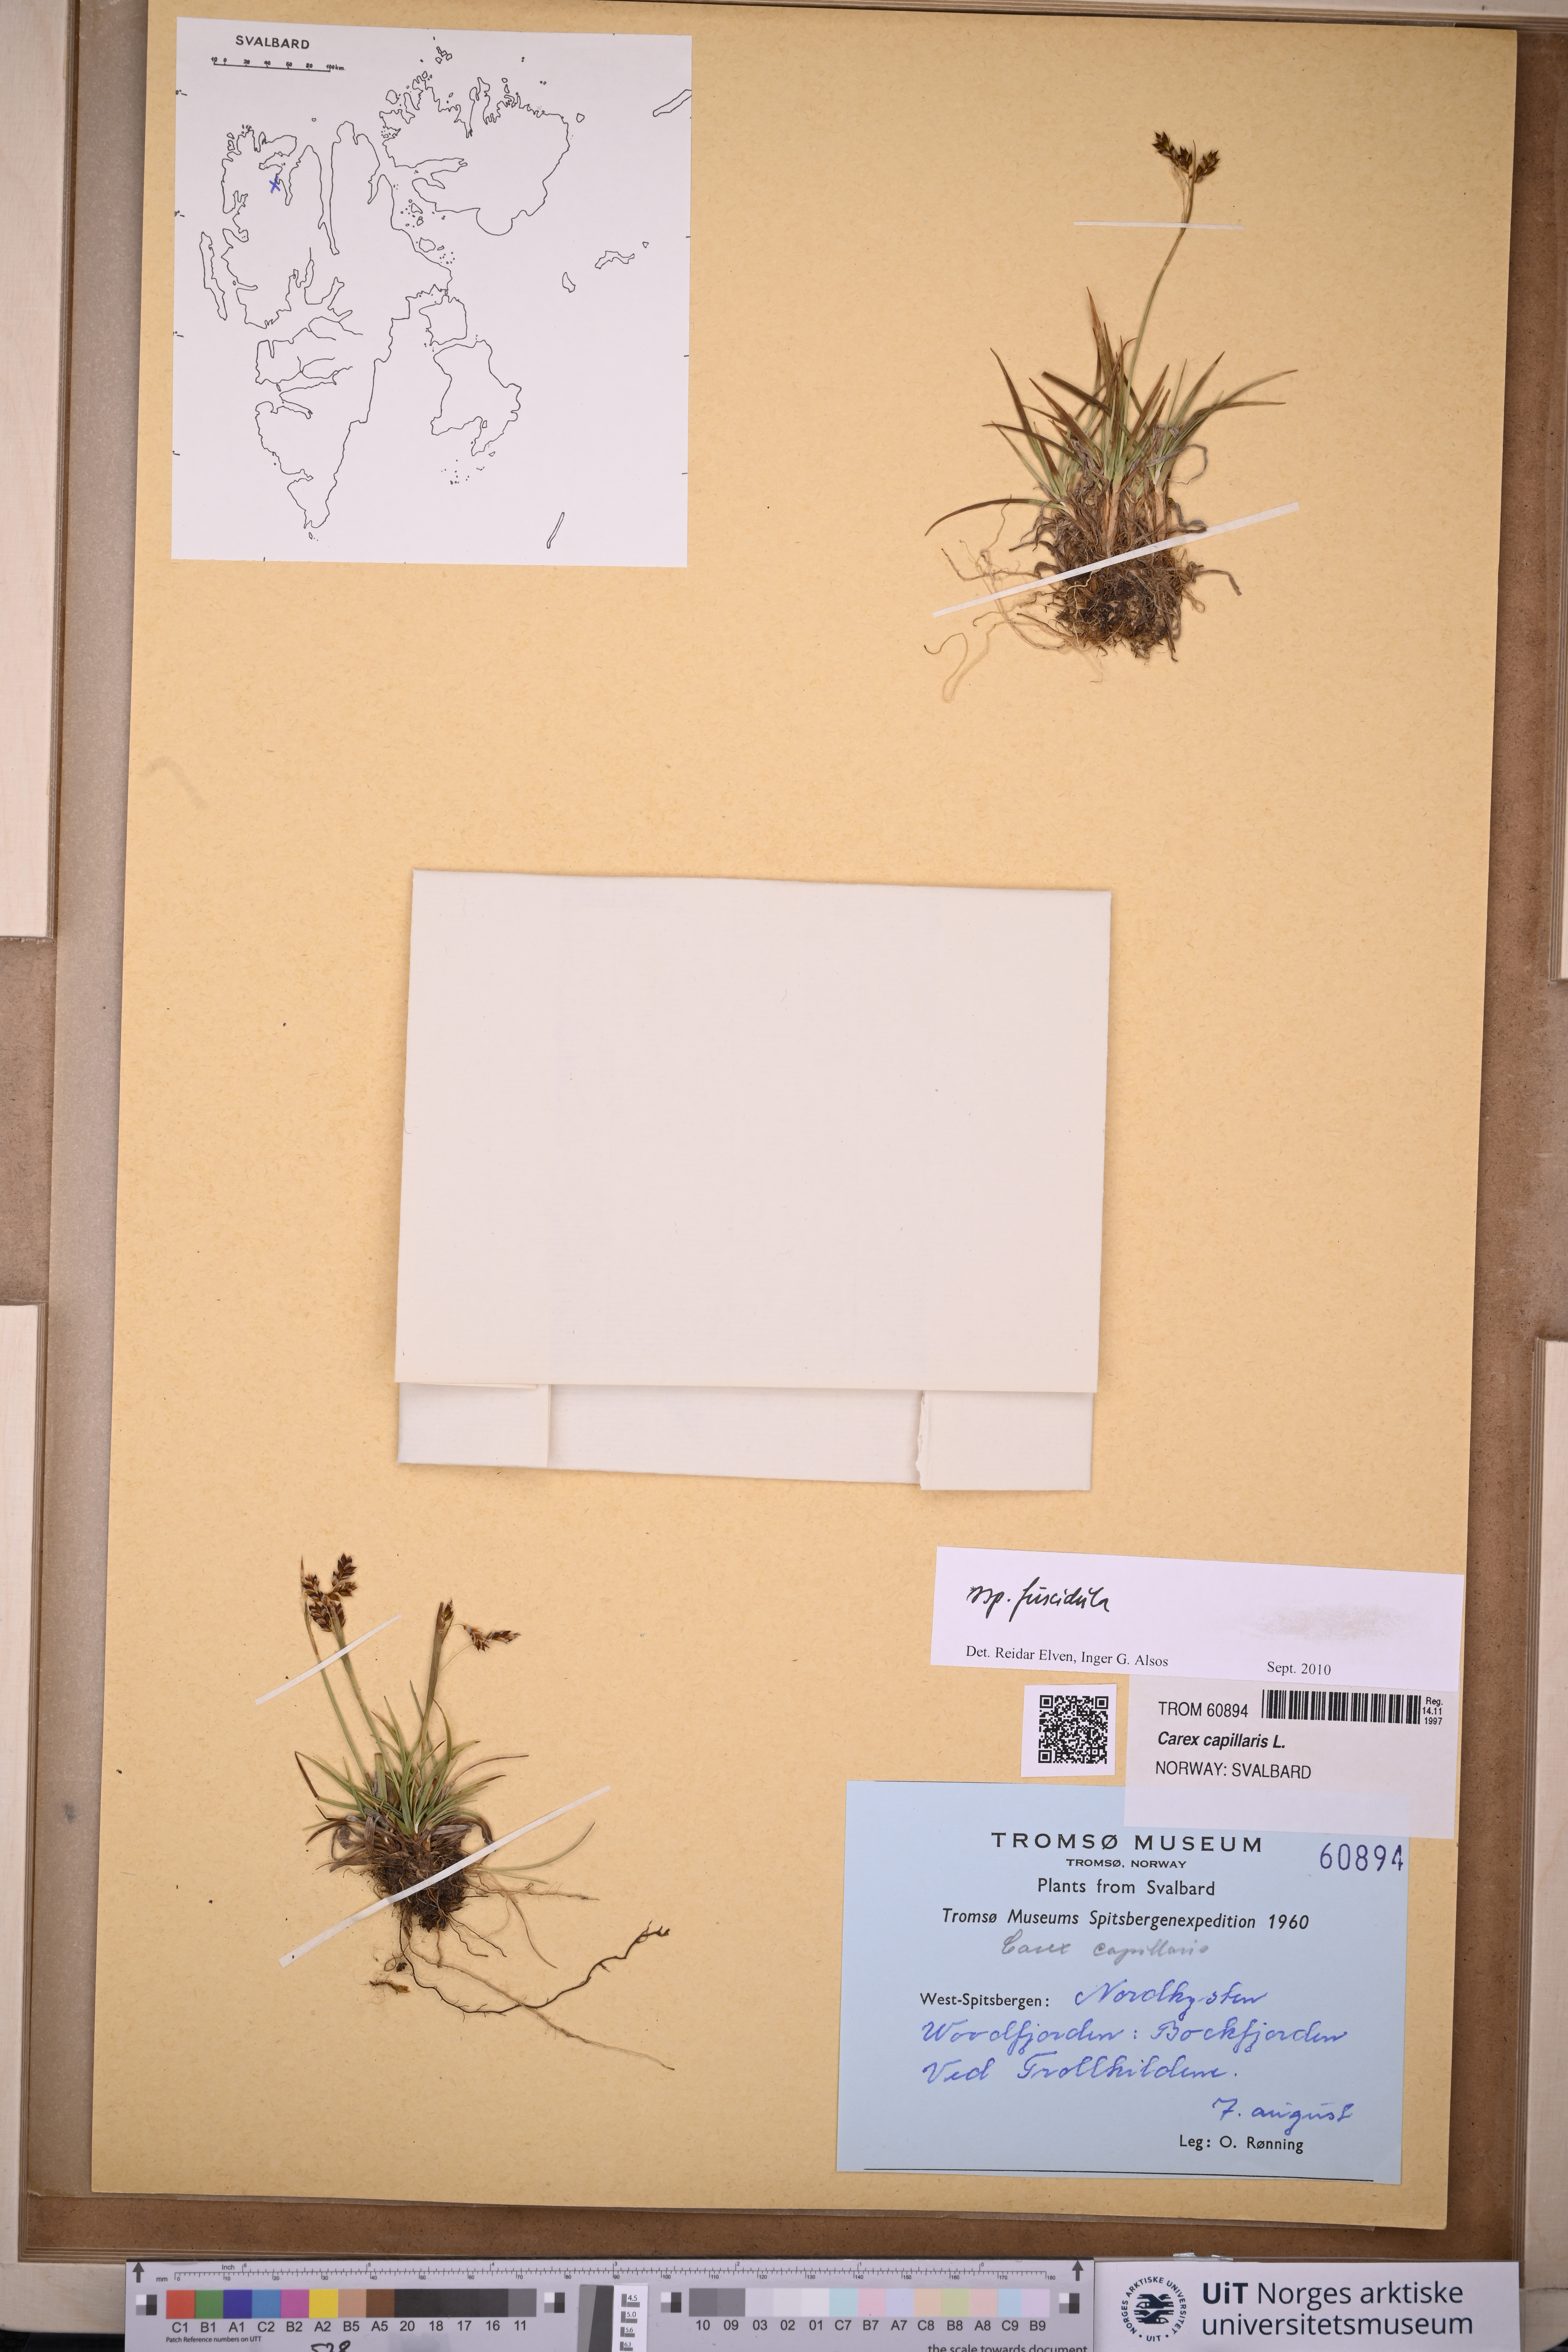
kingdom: Plantae
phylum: Tracheophyta
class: Liliopsida
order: Poales
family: Cyperaceae
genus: Carex
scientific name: Carex capillaris
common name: Hair sedge
